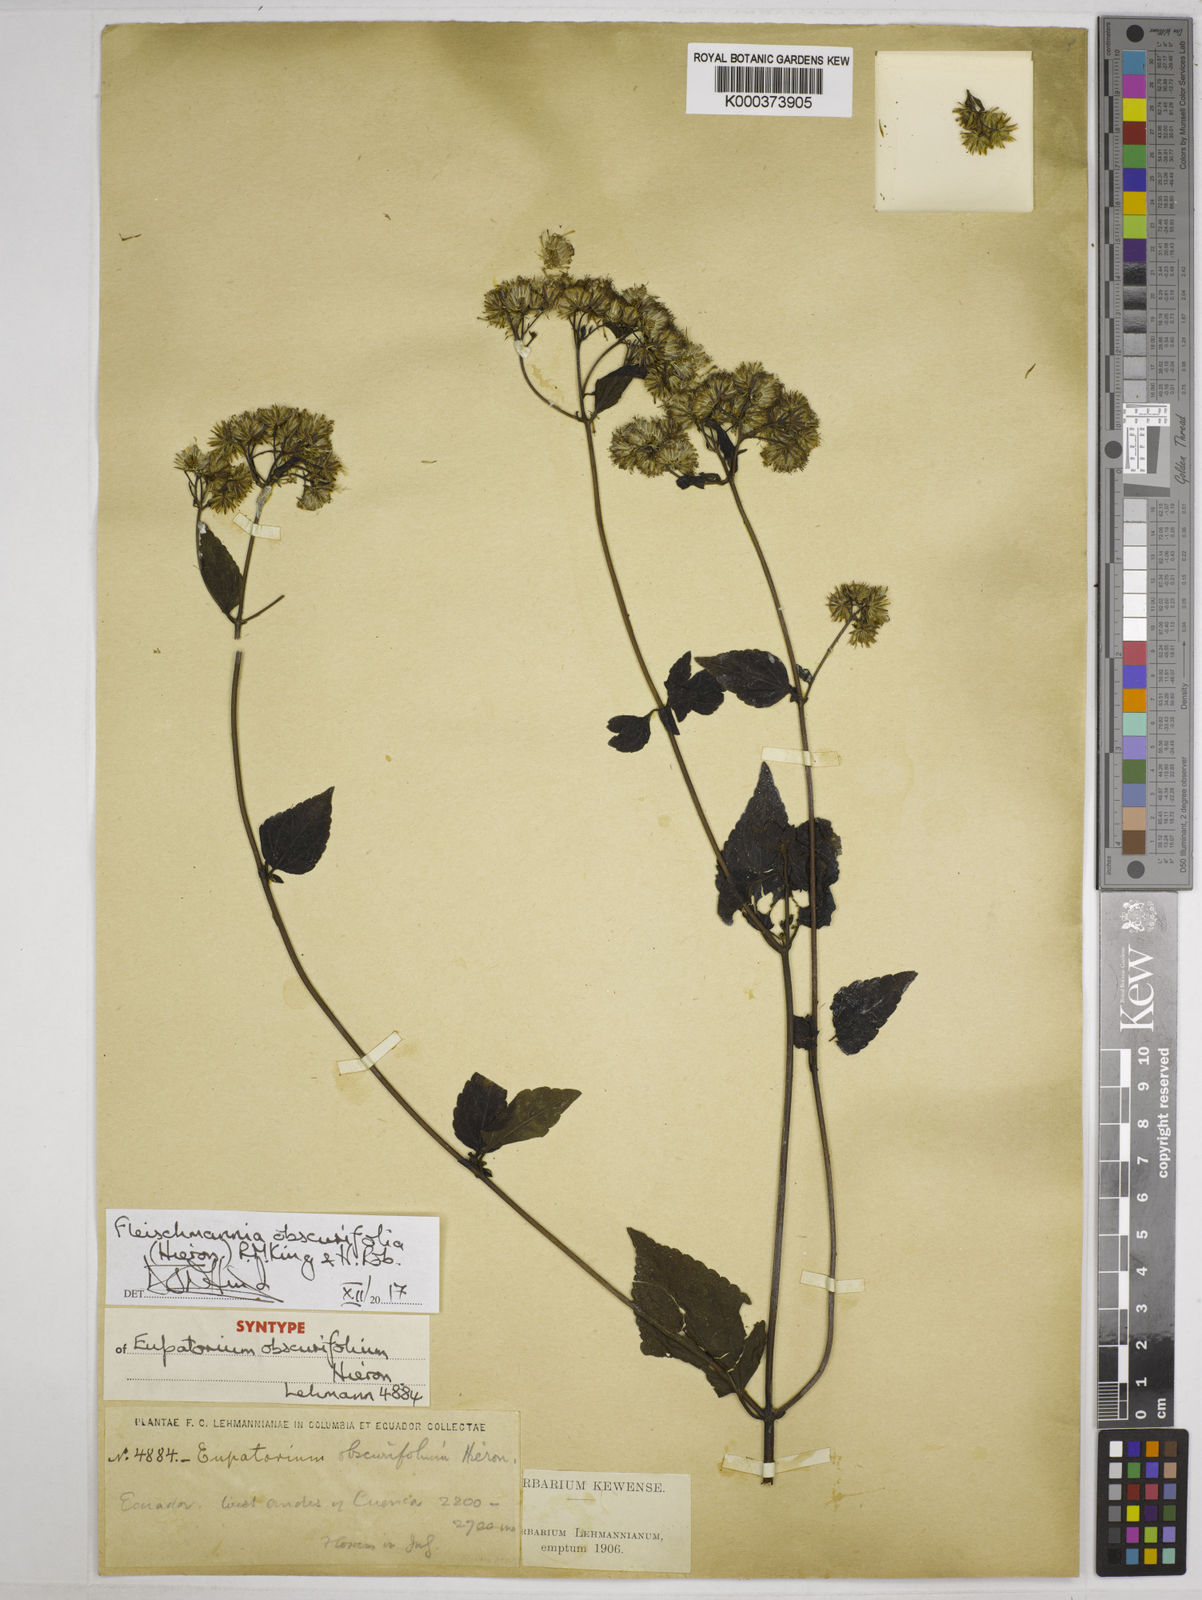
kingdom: Plantae
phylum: Tracheophyta
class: Magnoliopsida
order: Asterales
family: Asteraceae
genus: Fleischmannia
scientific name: Fleischmannia obscurifolia
